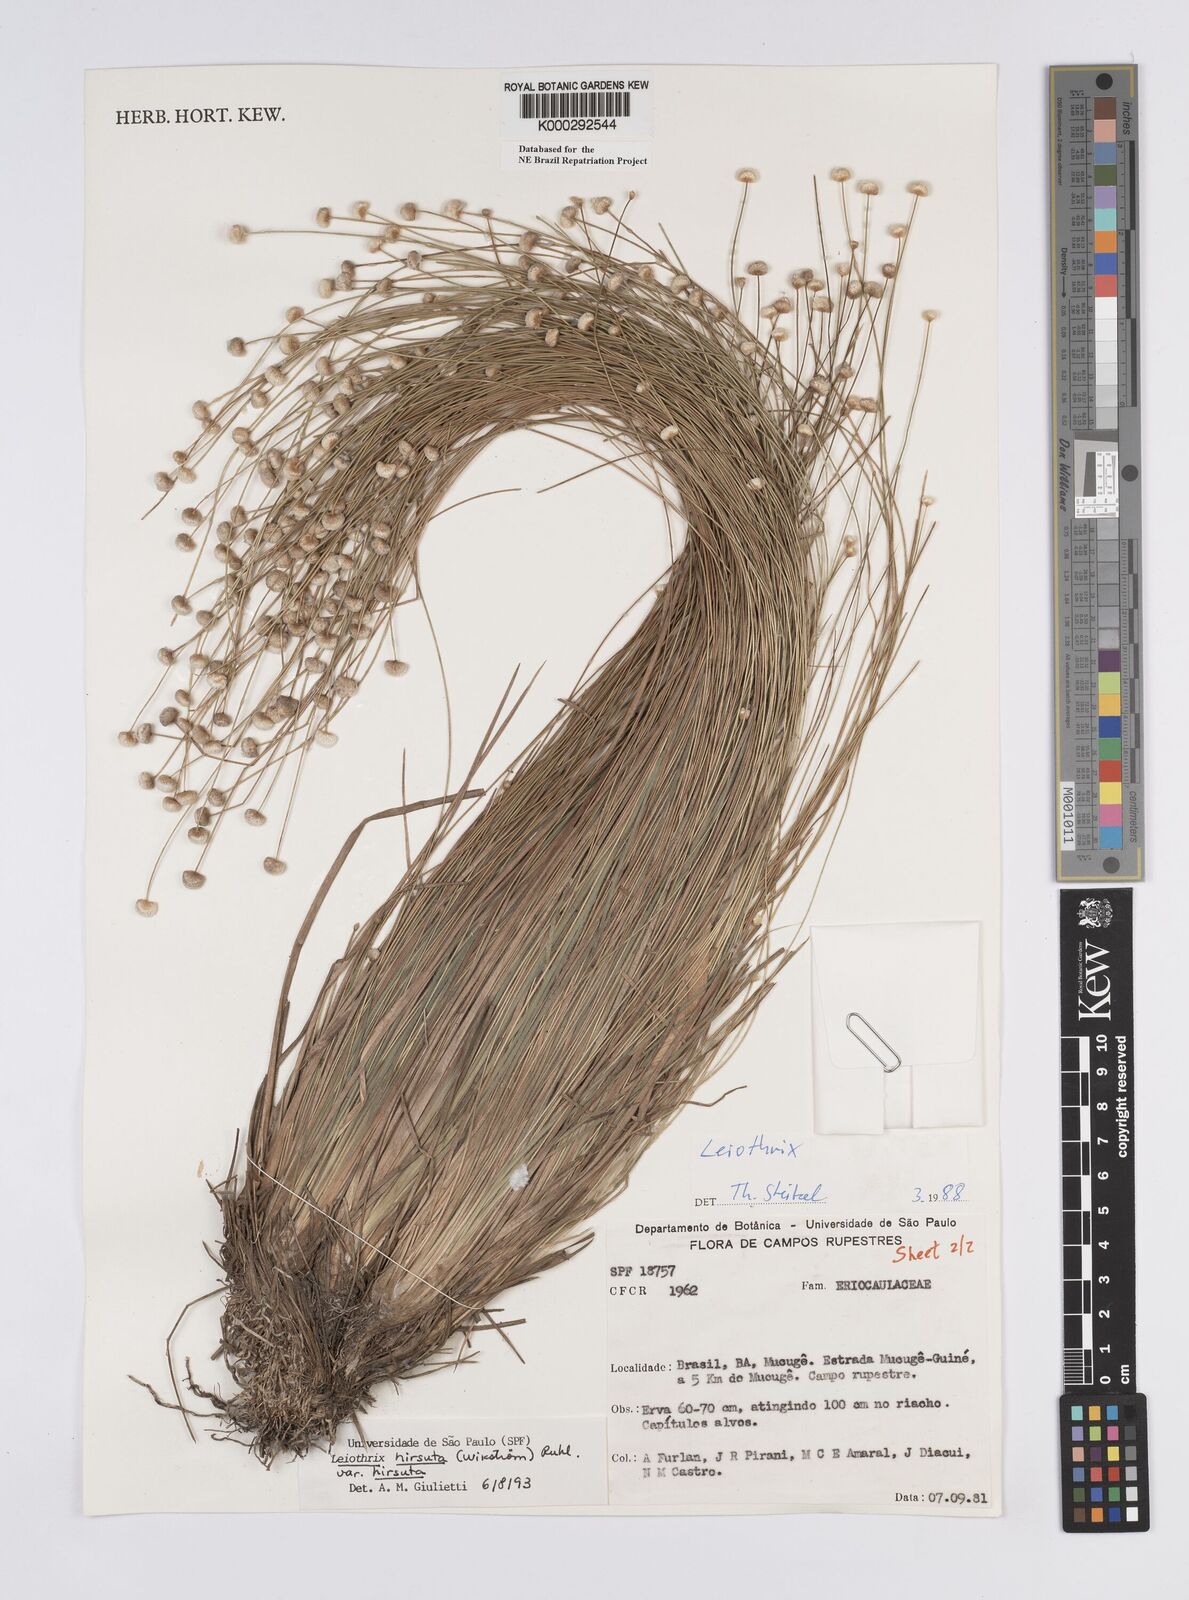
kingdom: Plantae
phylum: Tracheophyta
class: Liliopsida
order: Poales
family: Eriocaulaceae
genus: Leiothrix
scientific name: Leiothrix hirsuta
